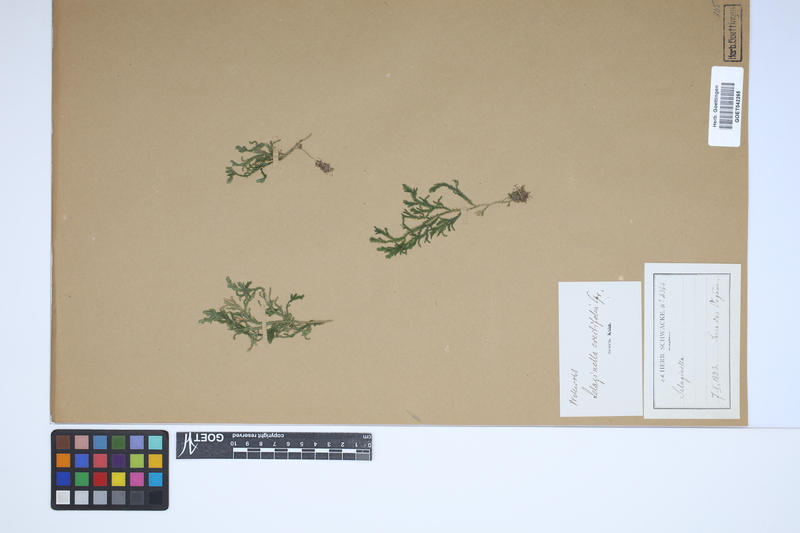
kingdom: Plantae
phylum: Tracheophyta
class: Lycopodiopsida
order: Selaginellales
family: Selaginellaceae
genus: Selaginella
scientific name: Selaginella erectifolia
